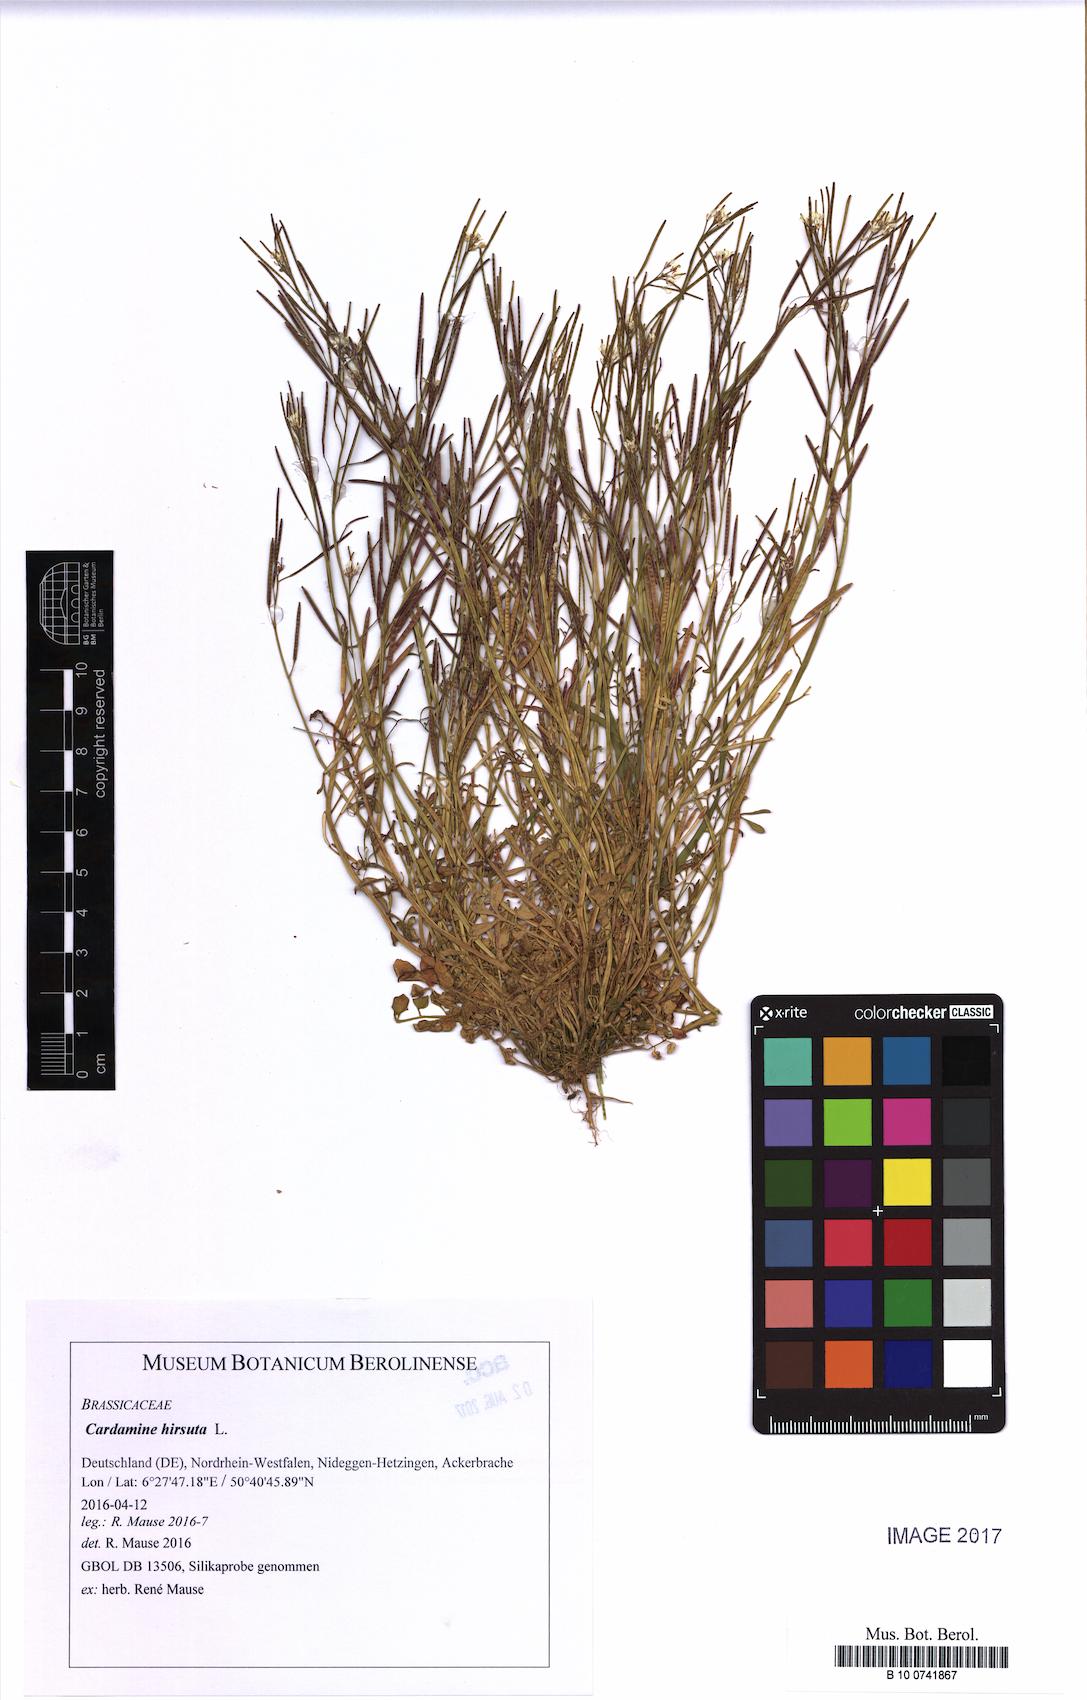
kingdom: Plantae
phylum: Tracheophyta
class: Magnoliopsida
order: Brassicales
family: Brassicaceae
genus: Cardamine
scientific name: Cardamine hirsuta
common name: Hairy bittercress
